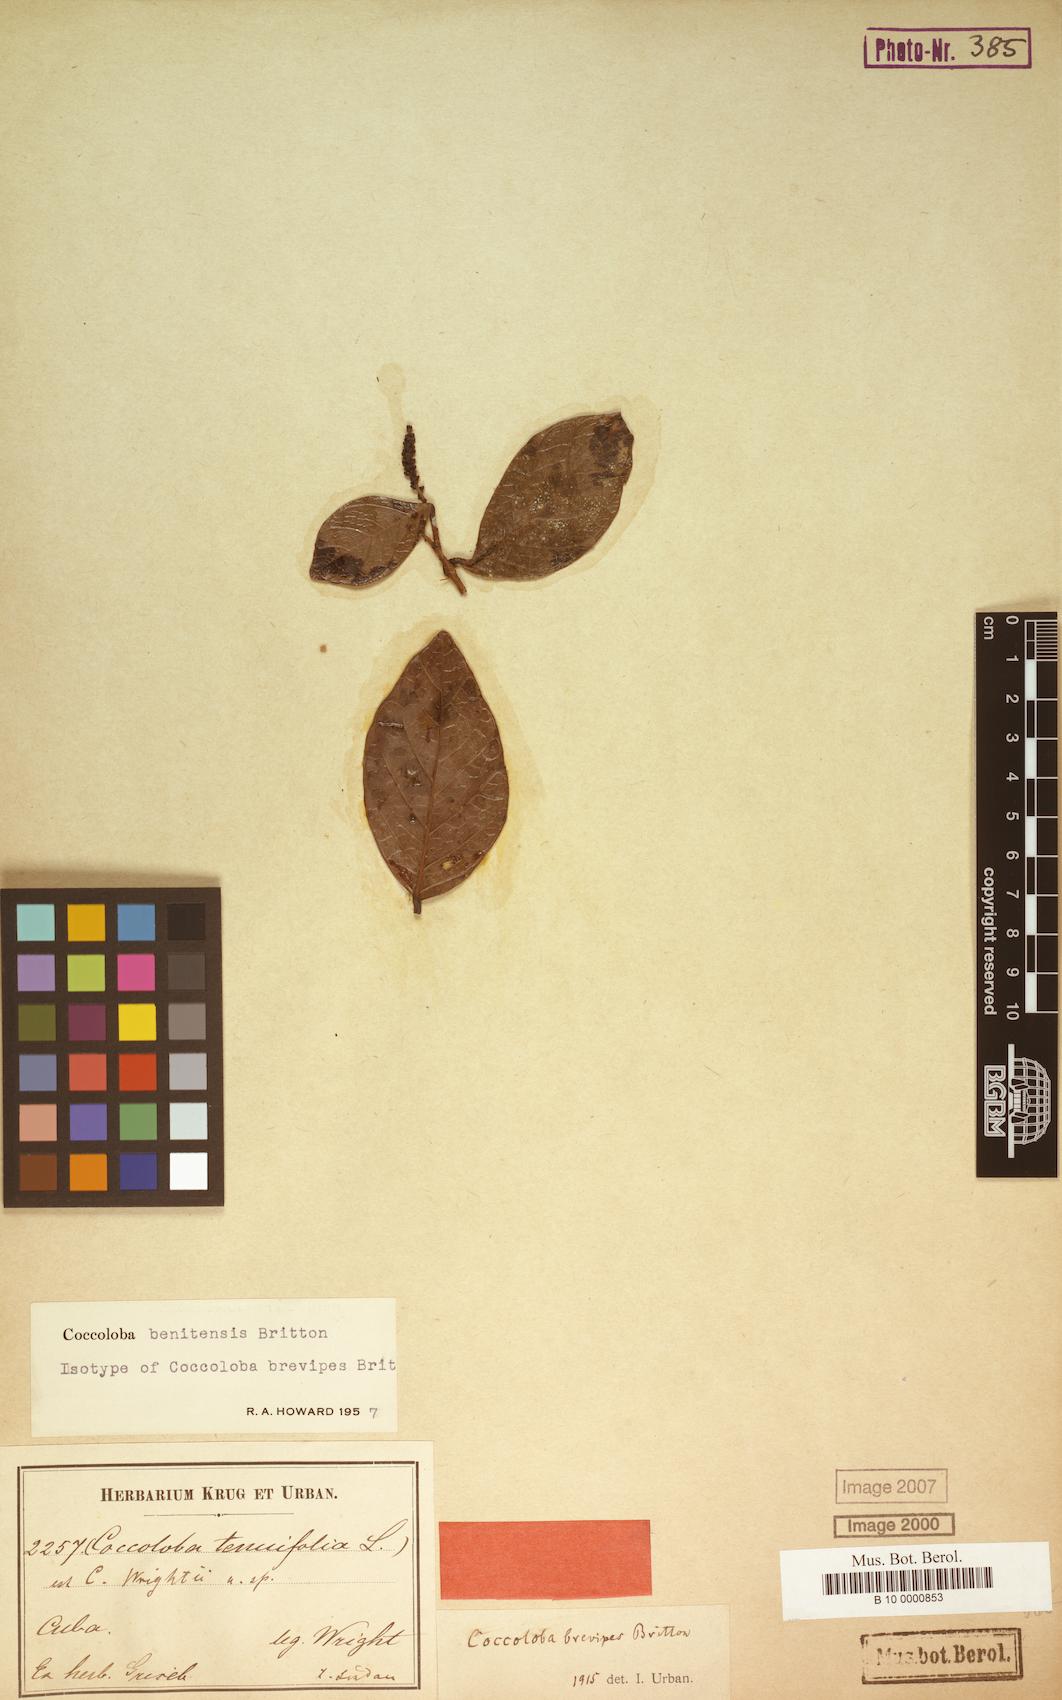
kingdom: Plantae
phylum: Tracheophyta
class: Magnoliopsida
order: Caryophyllales
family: Polygonaceae
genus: Coccoloba
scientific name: Coccoloba benitensis
